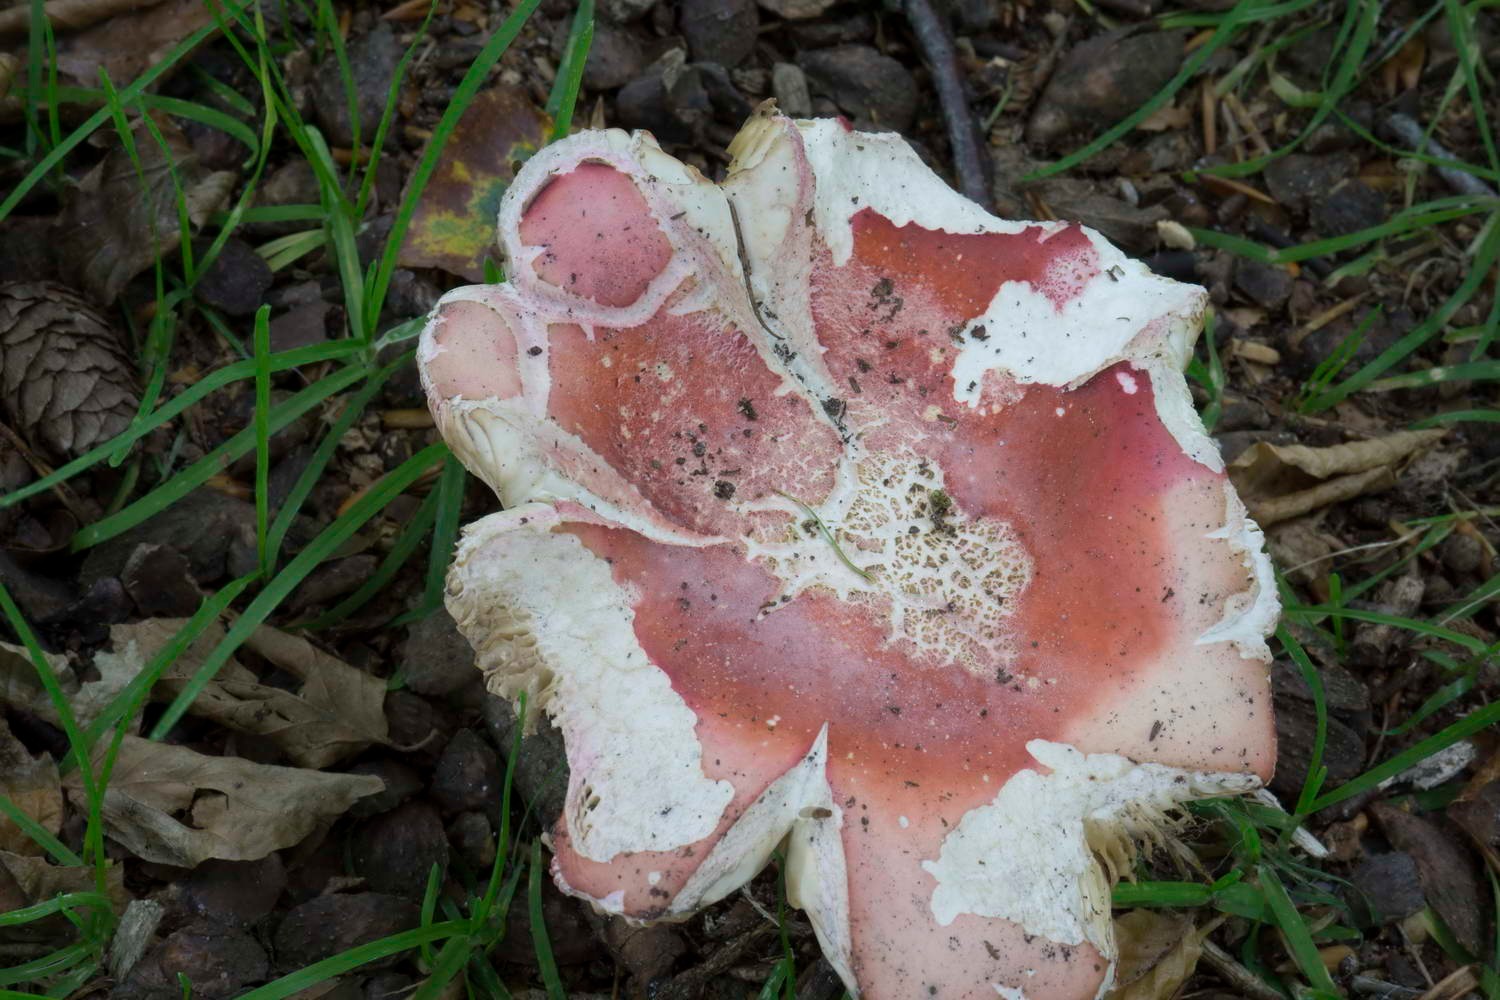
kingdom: Fungi
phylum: Basidiomycota
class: Agaricomycetes
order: Russulales
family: Russulaceae
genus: Russula
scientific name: Russula rosea
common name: fastkødet skørhat
